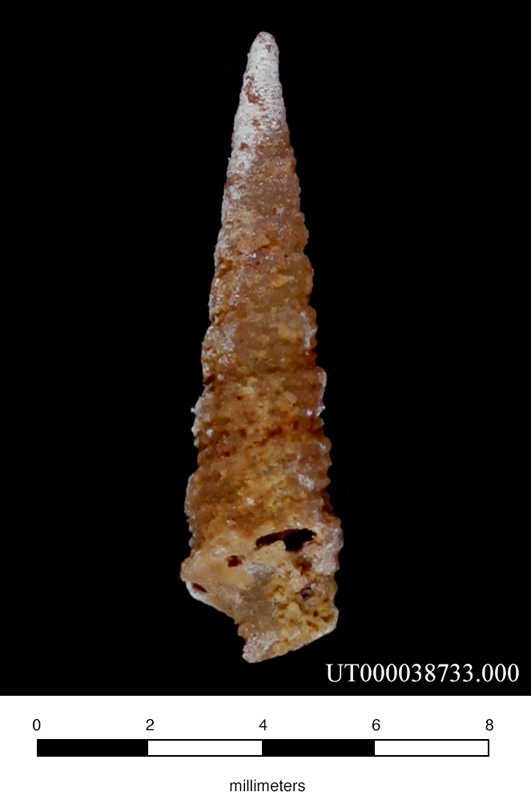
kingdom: Animalia
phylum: Mollusca
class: Gastropoda
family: Nerineidae
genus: Plesioptygmatis
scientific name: Plesioptygmatis Nerinea pseudoconvexa
